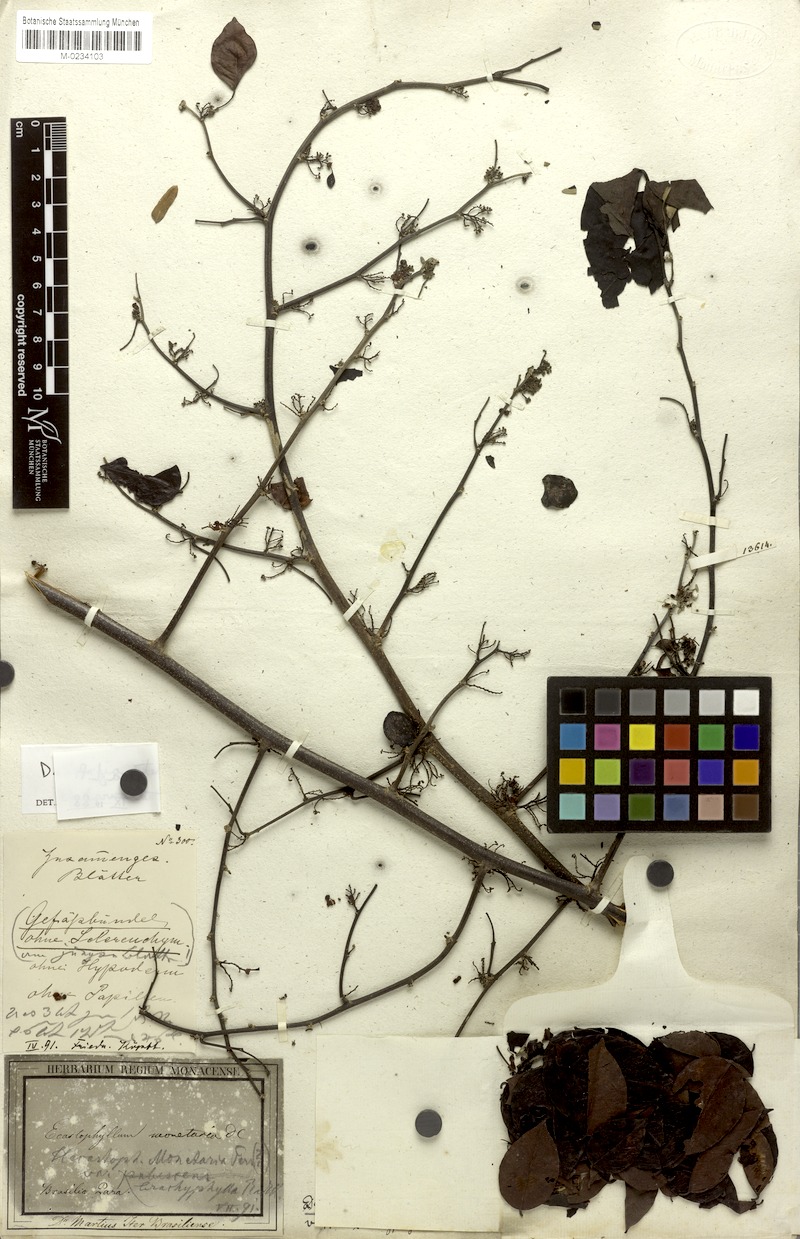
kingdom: Plantae
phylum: Tracheophyta
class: Magnoliopsida
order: Fabales
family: Fabaceae
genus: Dalbergia
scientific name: Dalbergia ovalis
